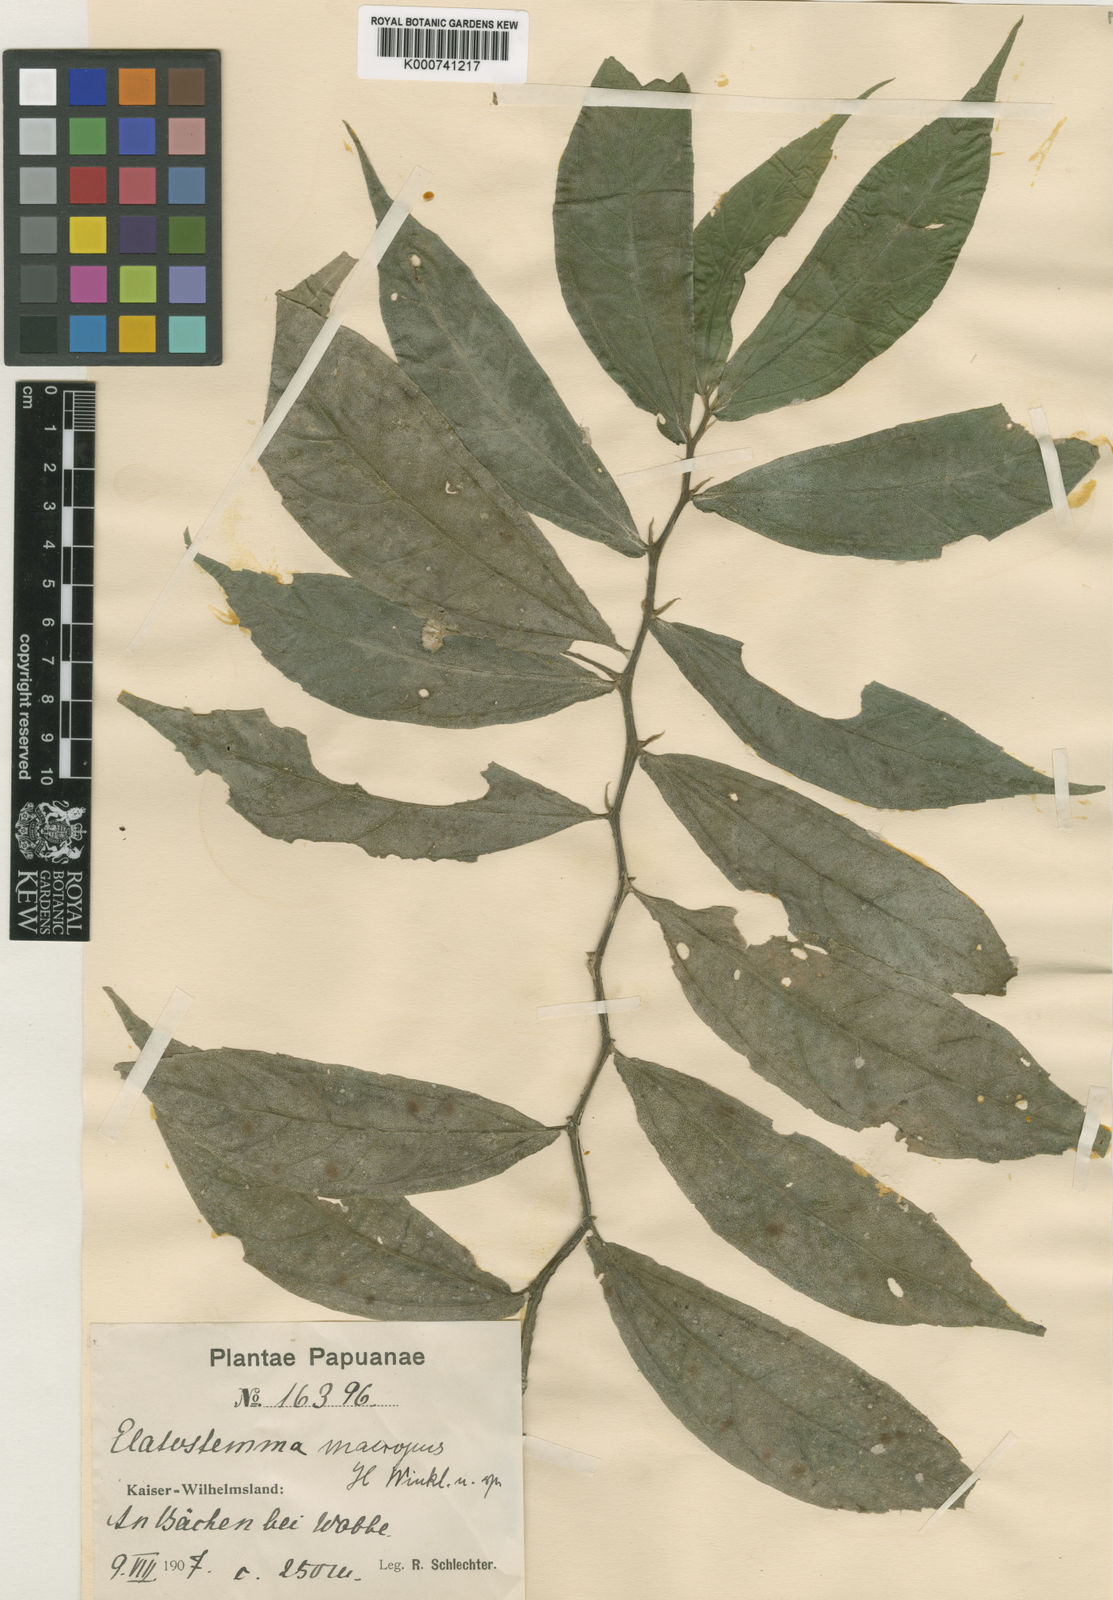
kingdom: Plantae
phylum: Tracheophyta
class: Magnoliopsida
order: Rosales
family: Urticaceae
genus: Elatostema
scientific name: Elatostema macropus
